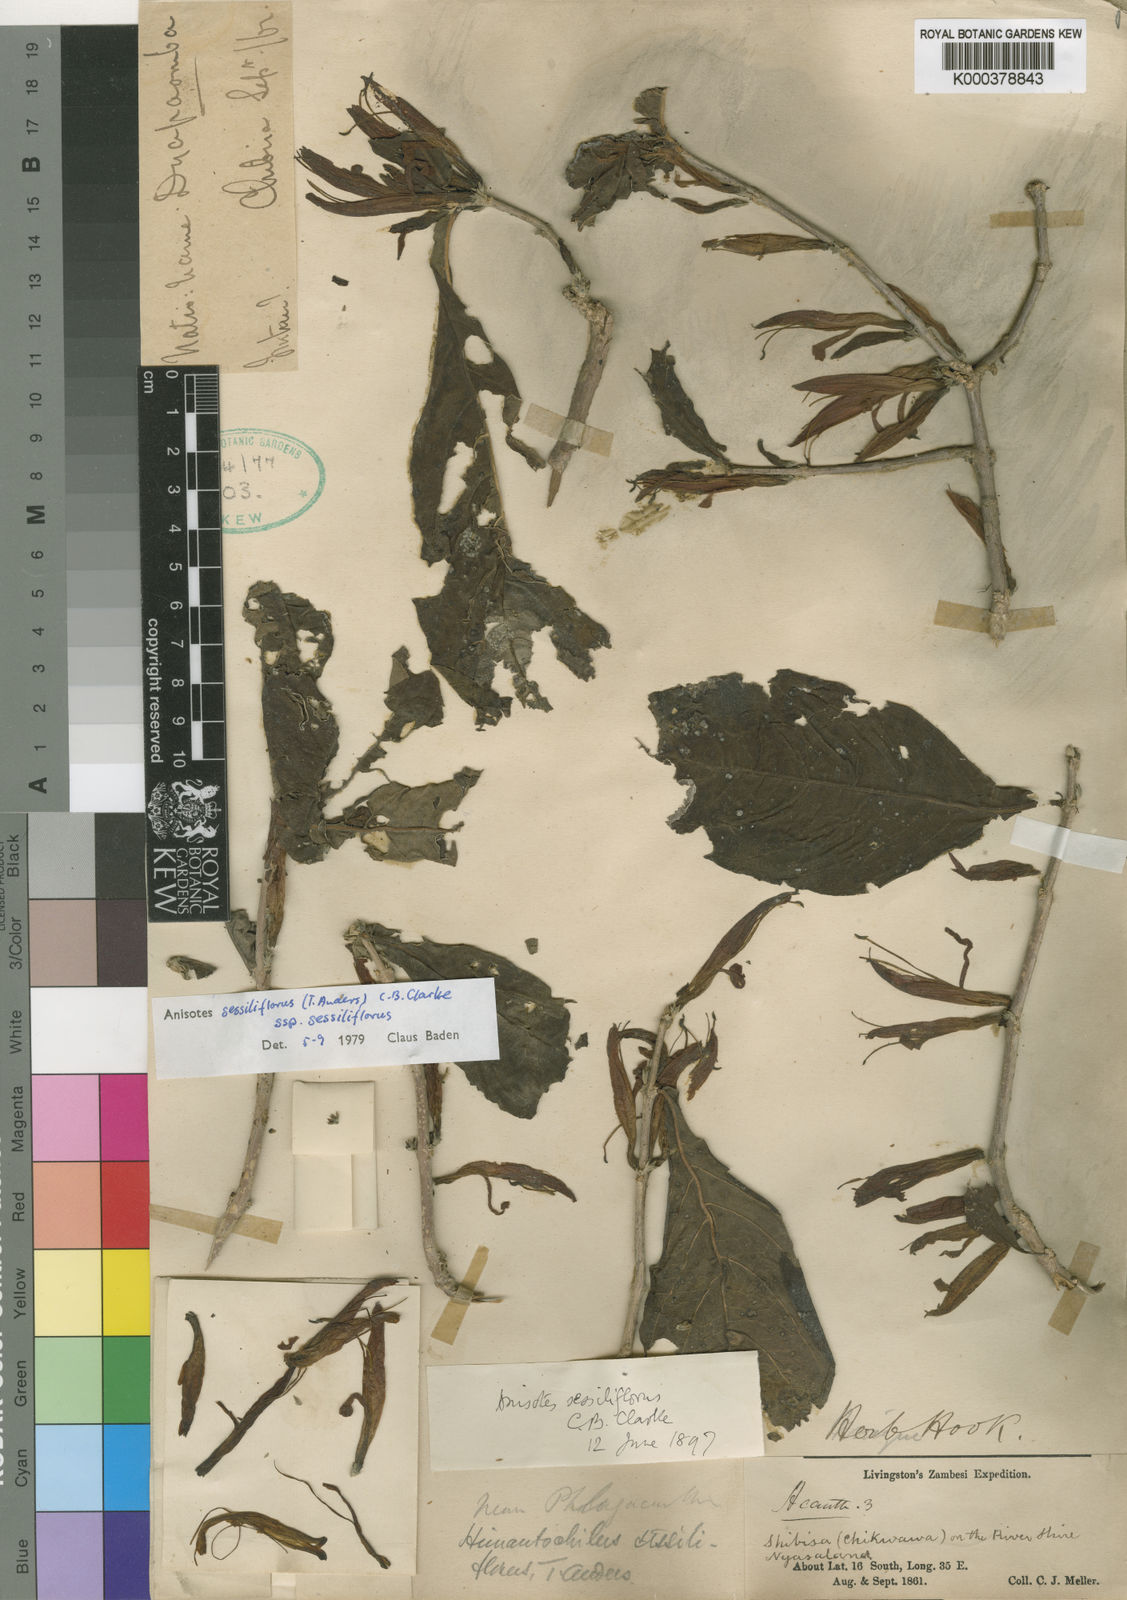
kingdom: Plantae
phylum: Tracheophyta
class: Magnoliopsida
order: Lamiales
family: Acanthaceae
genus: Anisotes
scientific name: Anisotes sessiliflorus
